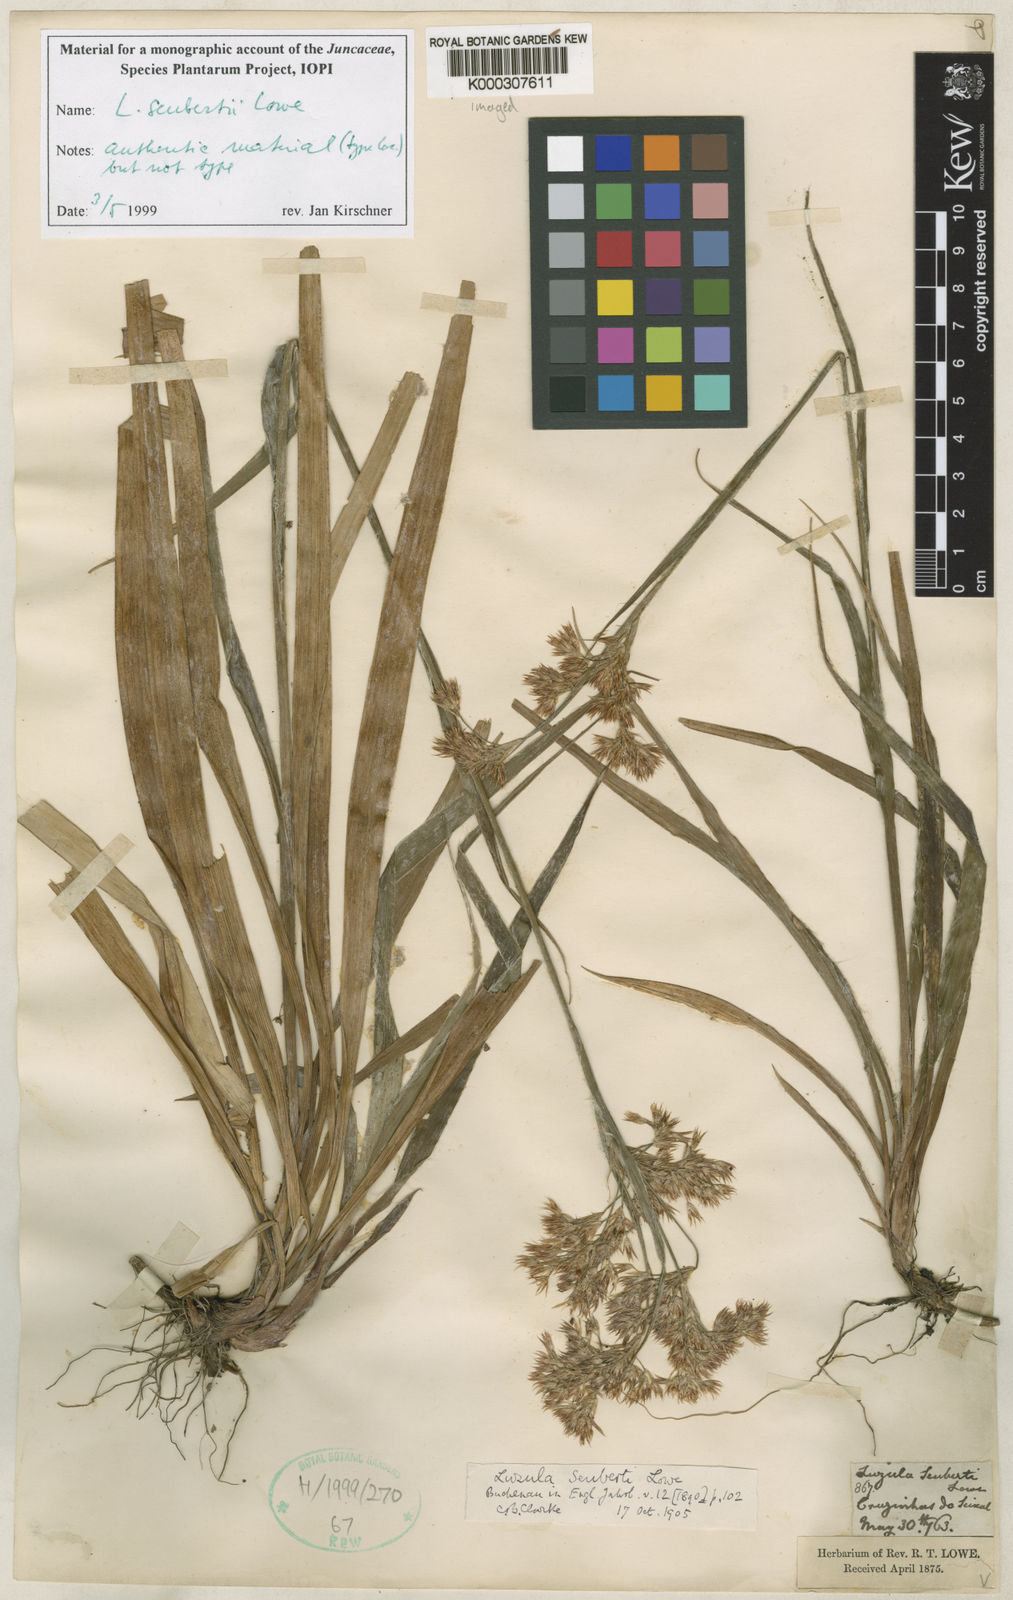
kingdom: Plantae
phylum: Tracheophyta
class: Liliopsida
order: Poales
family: Juncaceae
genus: Luzula
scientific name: Luzula seubertii
